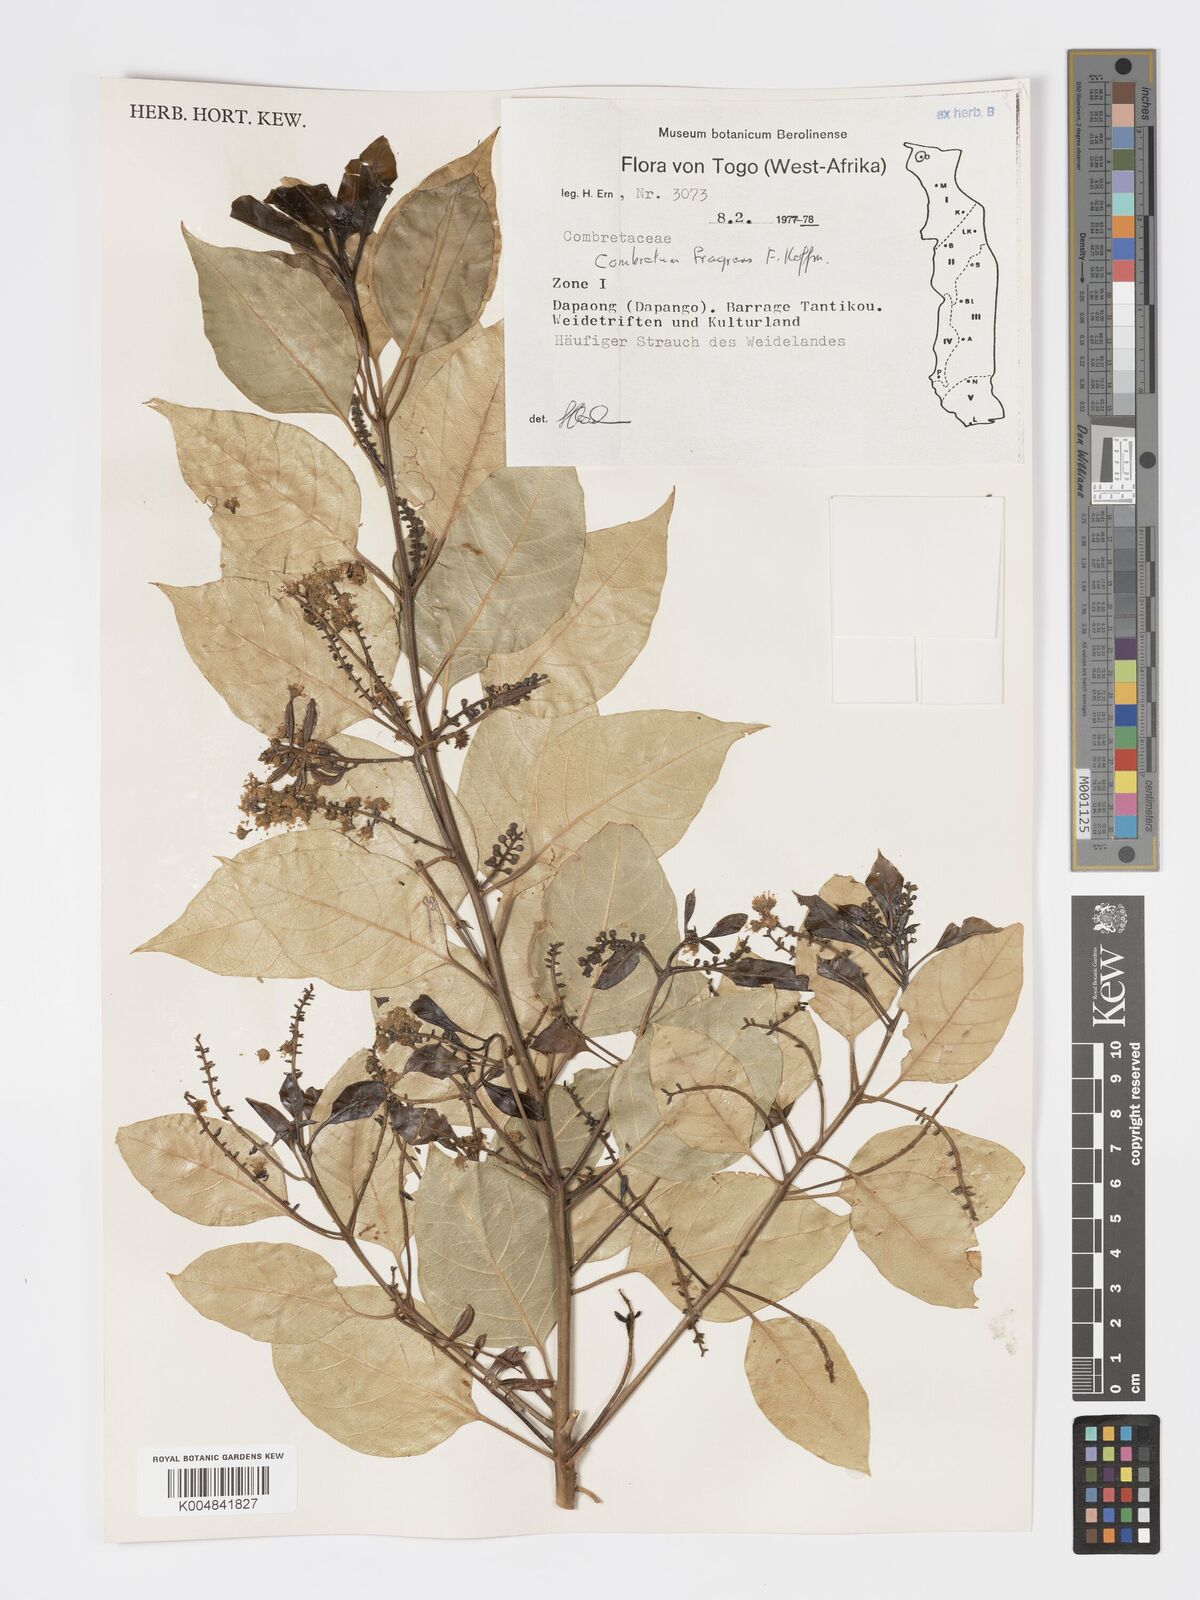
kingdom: Plantae
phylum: Tracheophyta
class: Magnoliopsida
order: Myrtales
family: Combretaceae
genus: Combretum
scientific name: Combretum adenogonium
